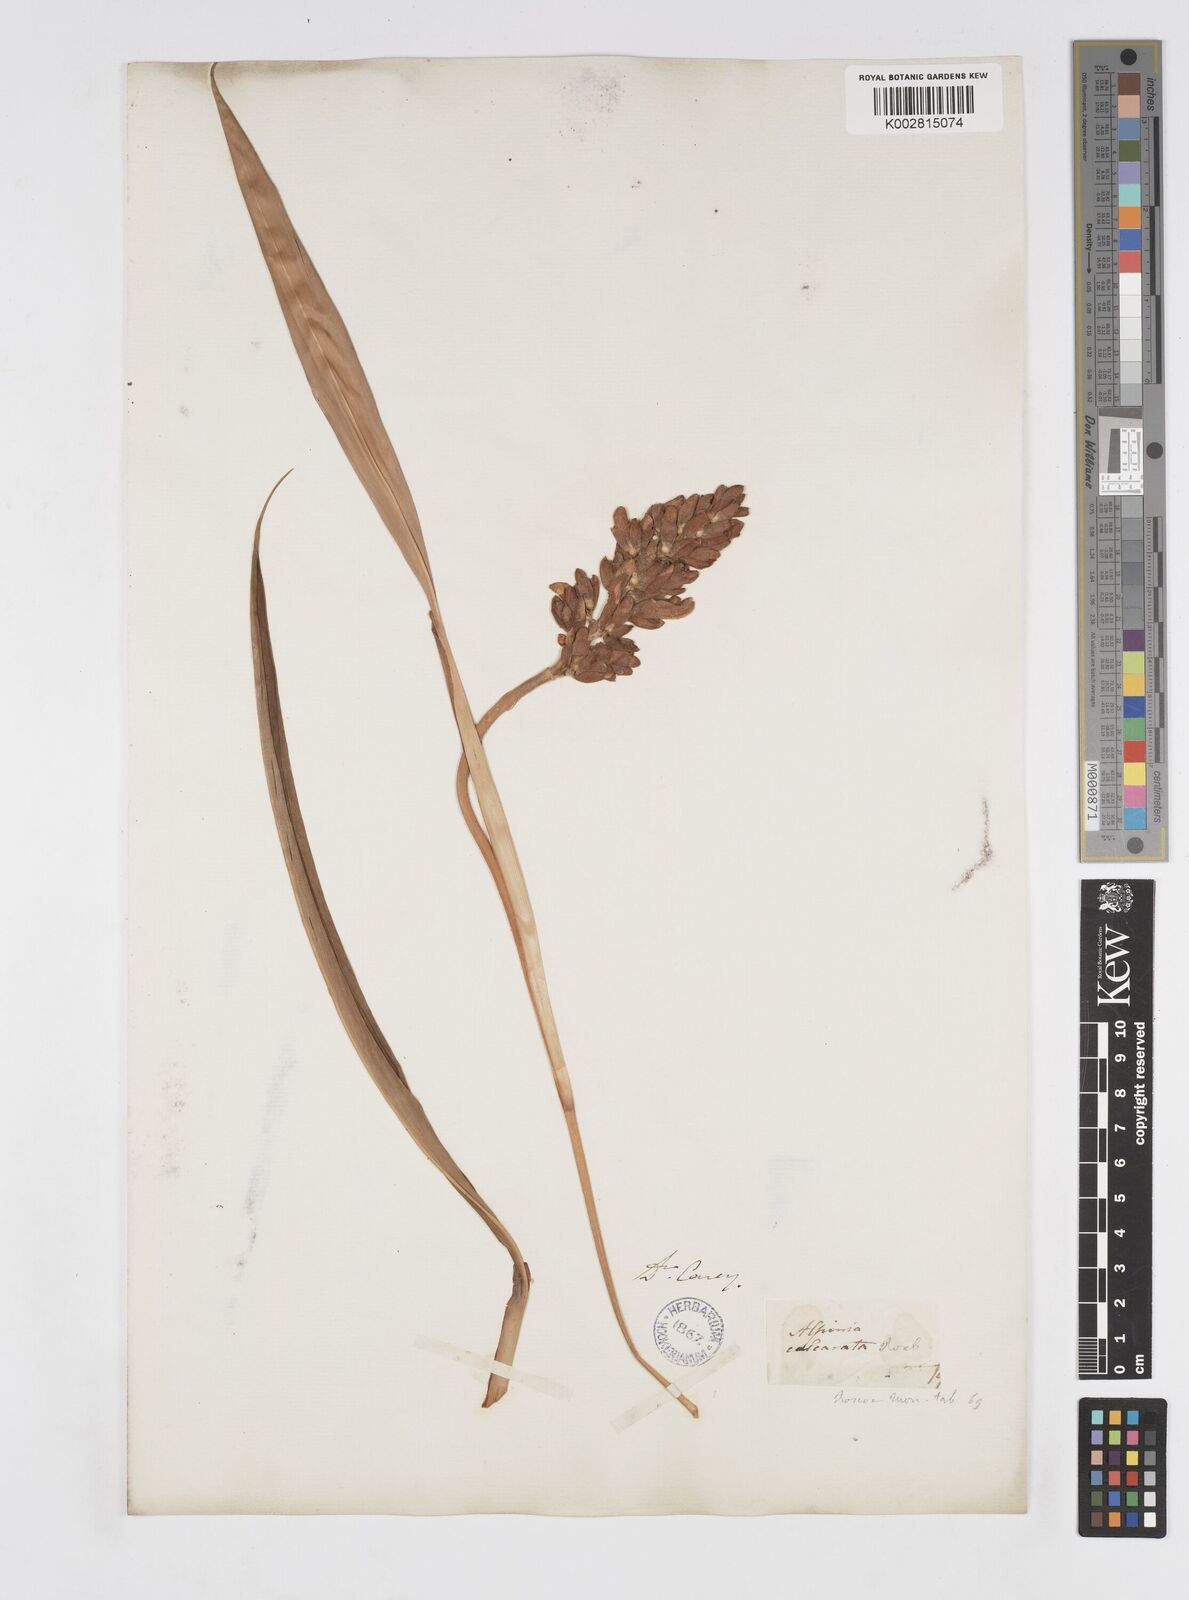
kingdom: Plantae
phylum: Tracheophyta
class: Liliopsida
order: Zingiberales
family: Zingiberaceae
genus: Alpinia
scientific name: Alpinia calcarata
